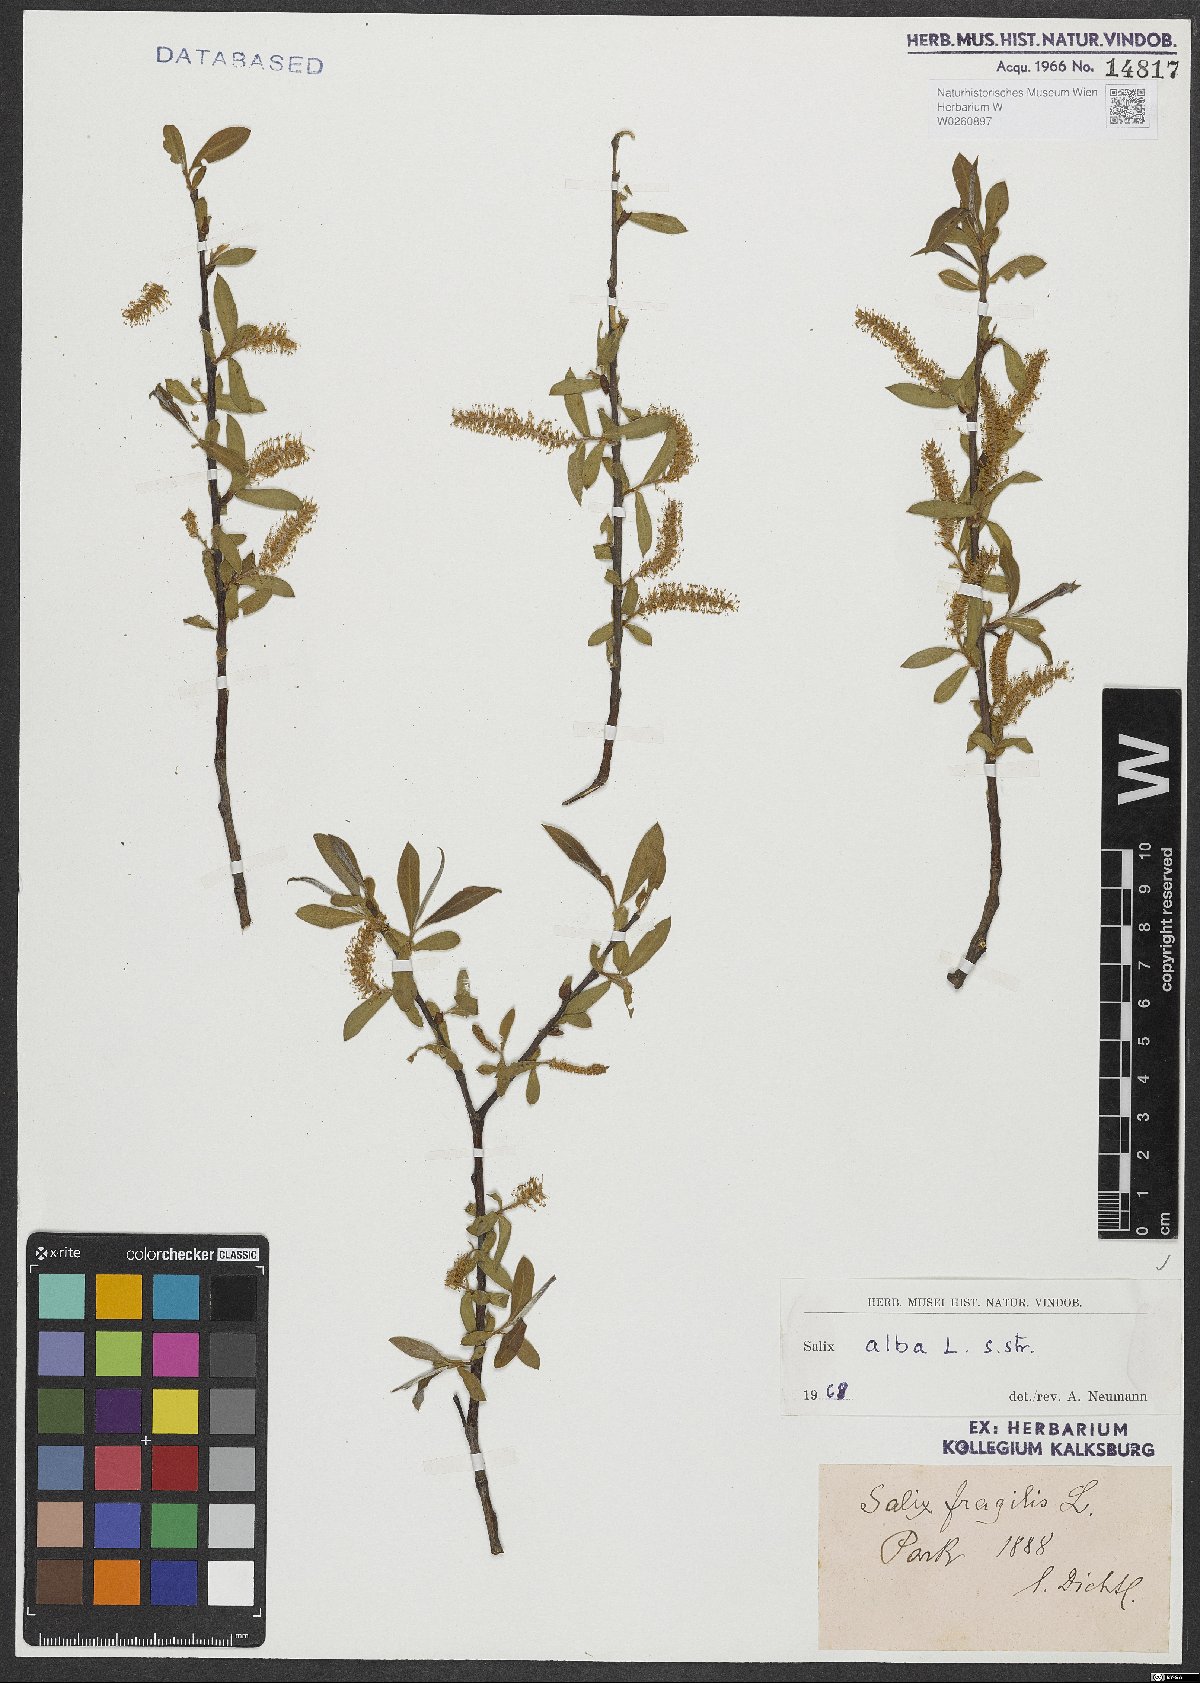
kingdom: Plantae
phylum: Tracheophyta
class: Magnoliopsida
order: Malpighiales
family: Salicaceae
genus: Salix
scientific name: Salix alba
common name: White willow
